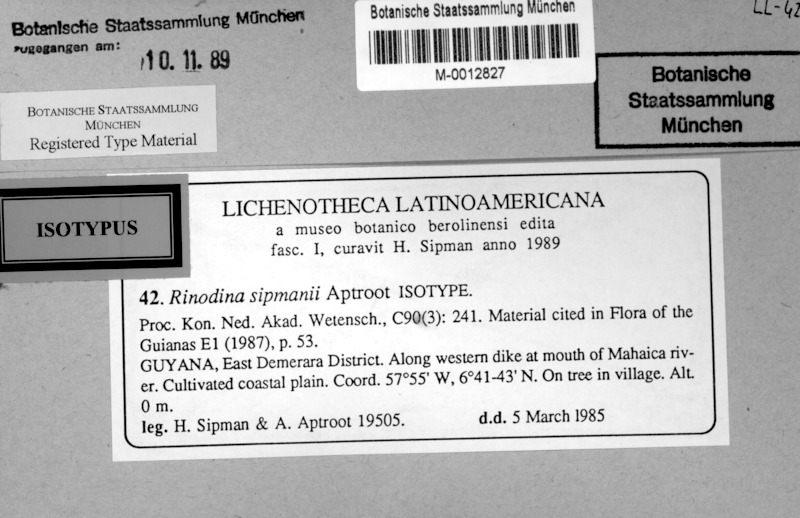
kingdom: Fungi
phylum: Ascomycota
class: Lecanoromycetes
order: Caliciales
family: Physciaceae
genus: Rinodina
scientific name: Rinodina sipmanii
